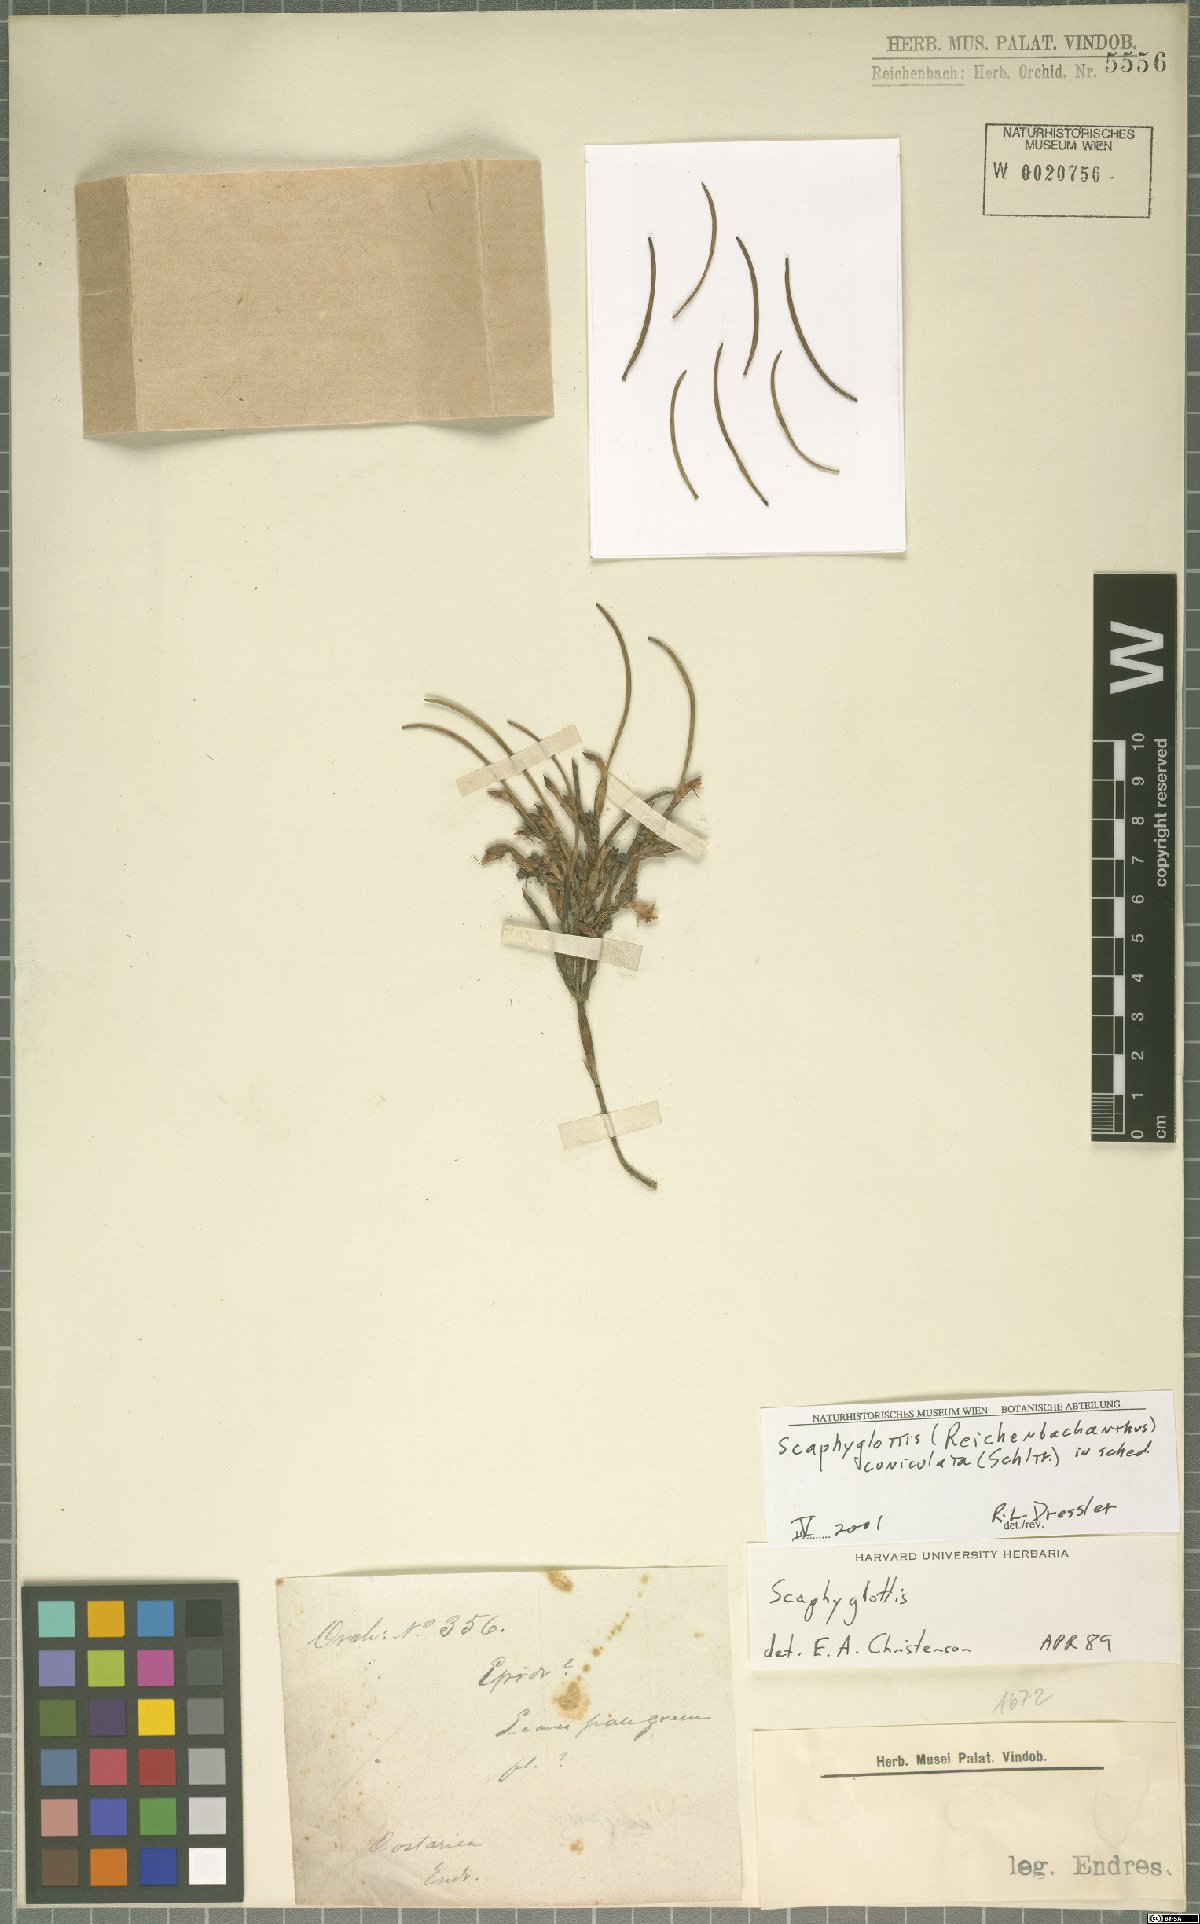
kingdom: Plantae
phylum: Tracheophyta
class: Liliopsida
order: Asparagales
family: Orchidaceae
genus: Scaphyglottis
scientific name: Scaphyglottis cuniculata
